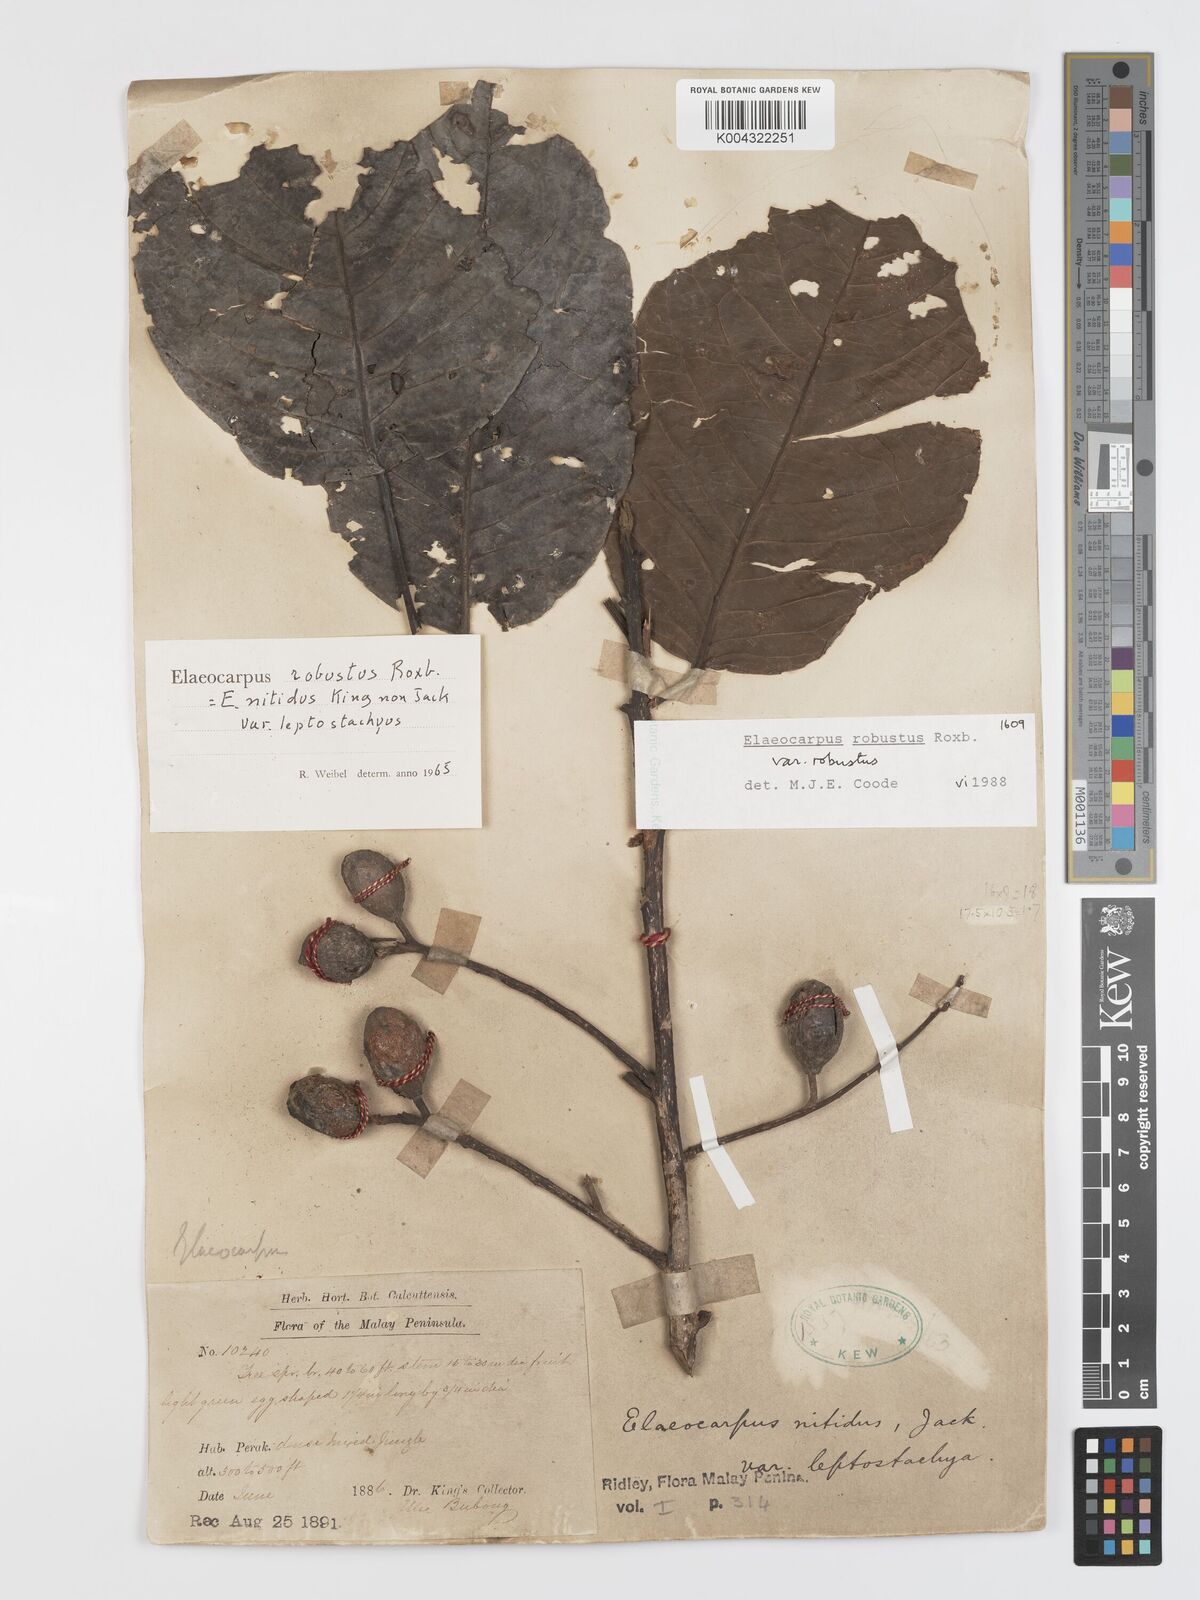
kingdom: Plantae
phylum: Tracheophyta
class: Magnoliopsida
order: Oxalidales
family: Elaeocarpaceae
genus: Elaeocarpus
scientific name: Elaeocarpus robustus
